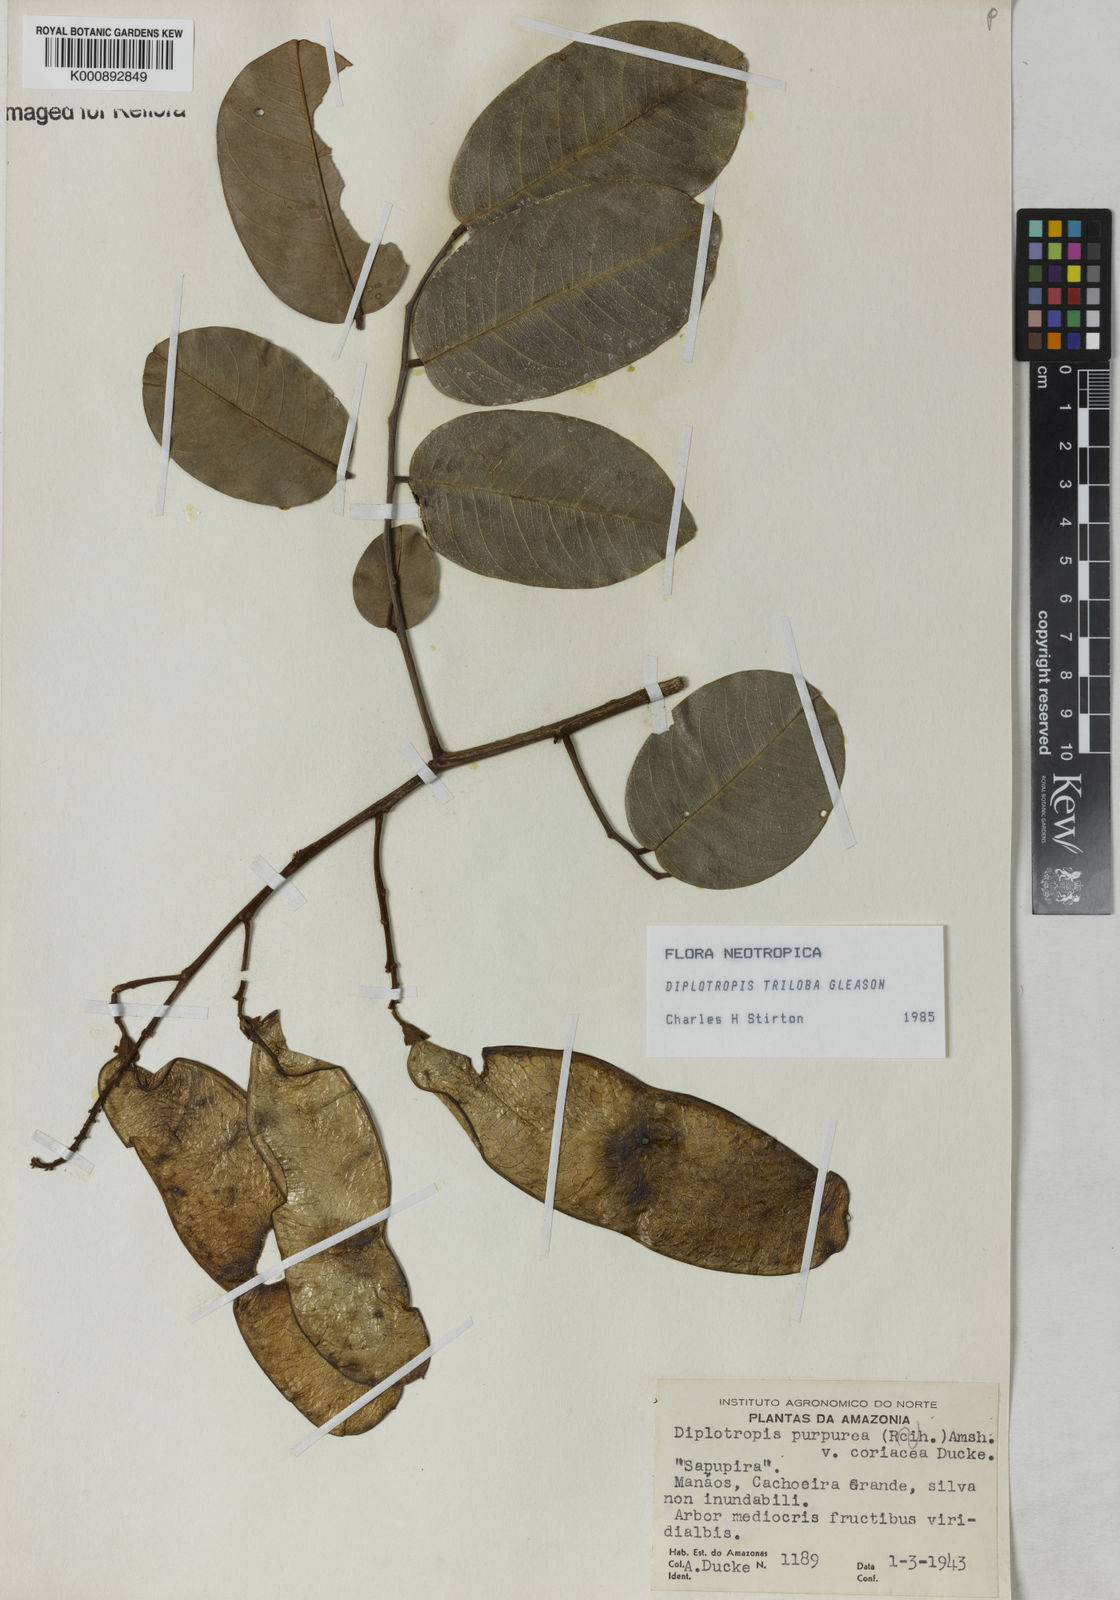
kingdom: Plantae
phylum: Tracheophyta
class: Magnoliopsida
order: Fabales
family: Fabaceae
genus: Diplotropis
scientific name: Diplotropis triloba
